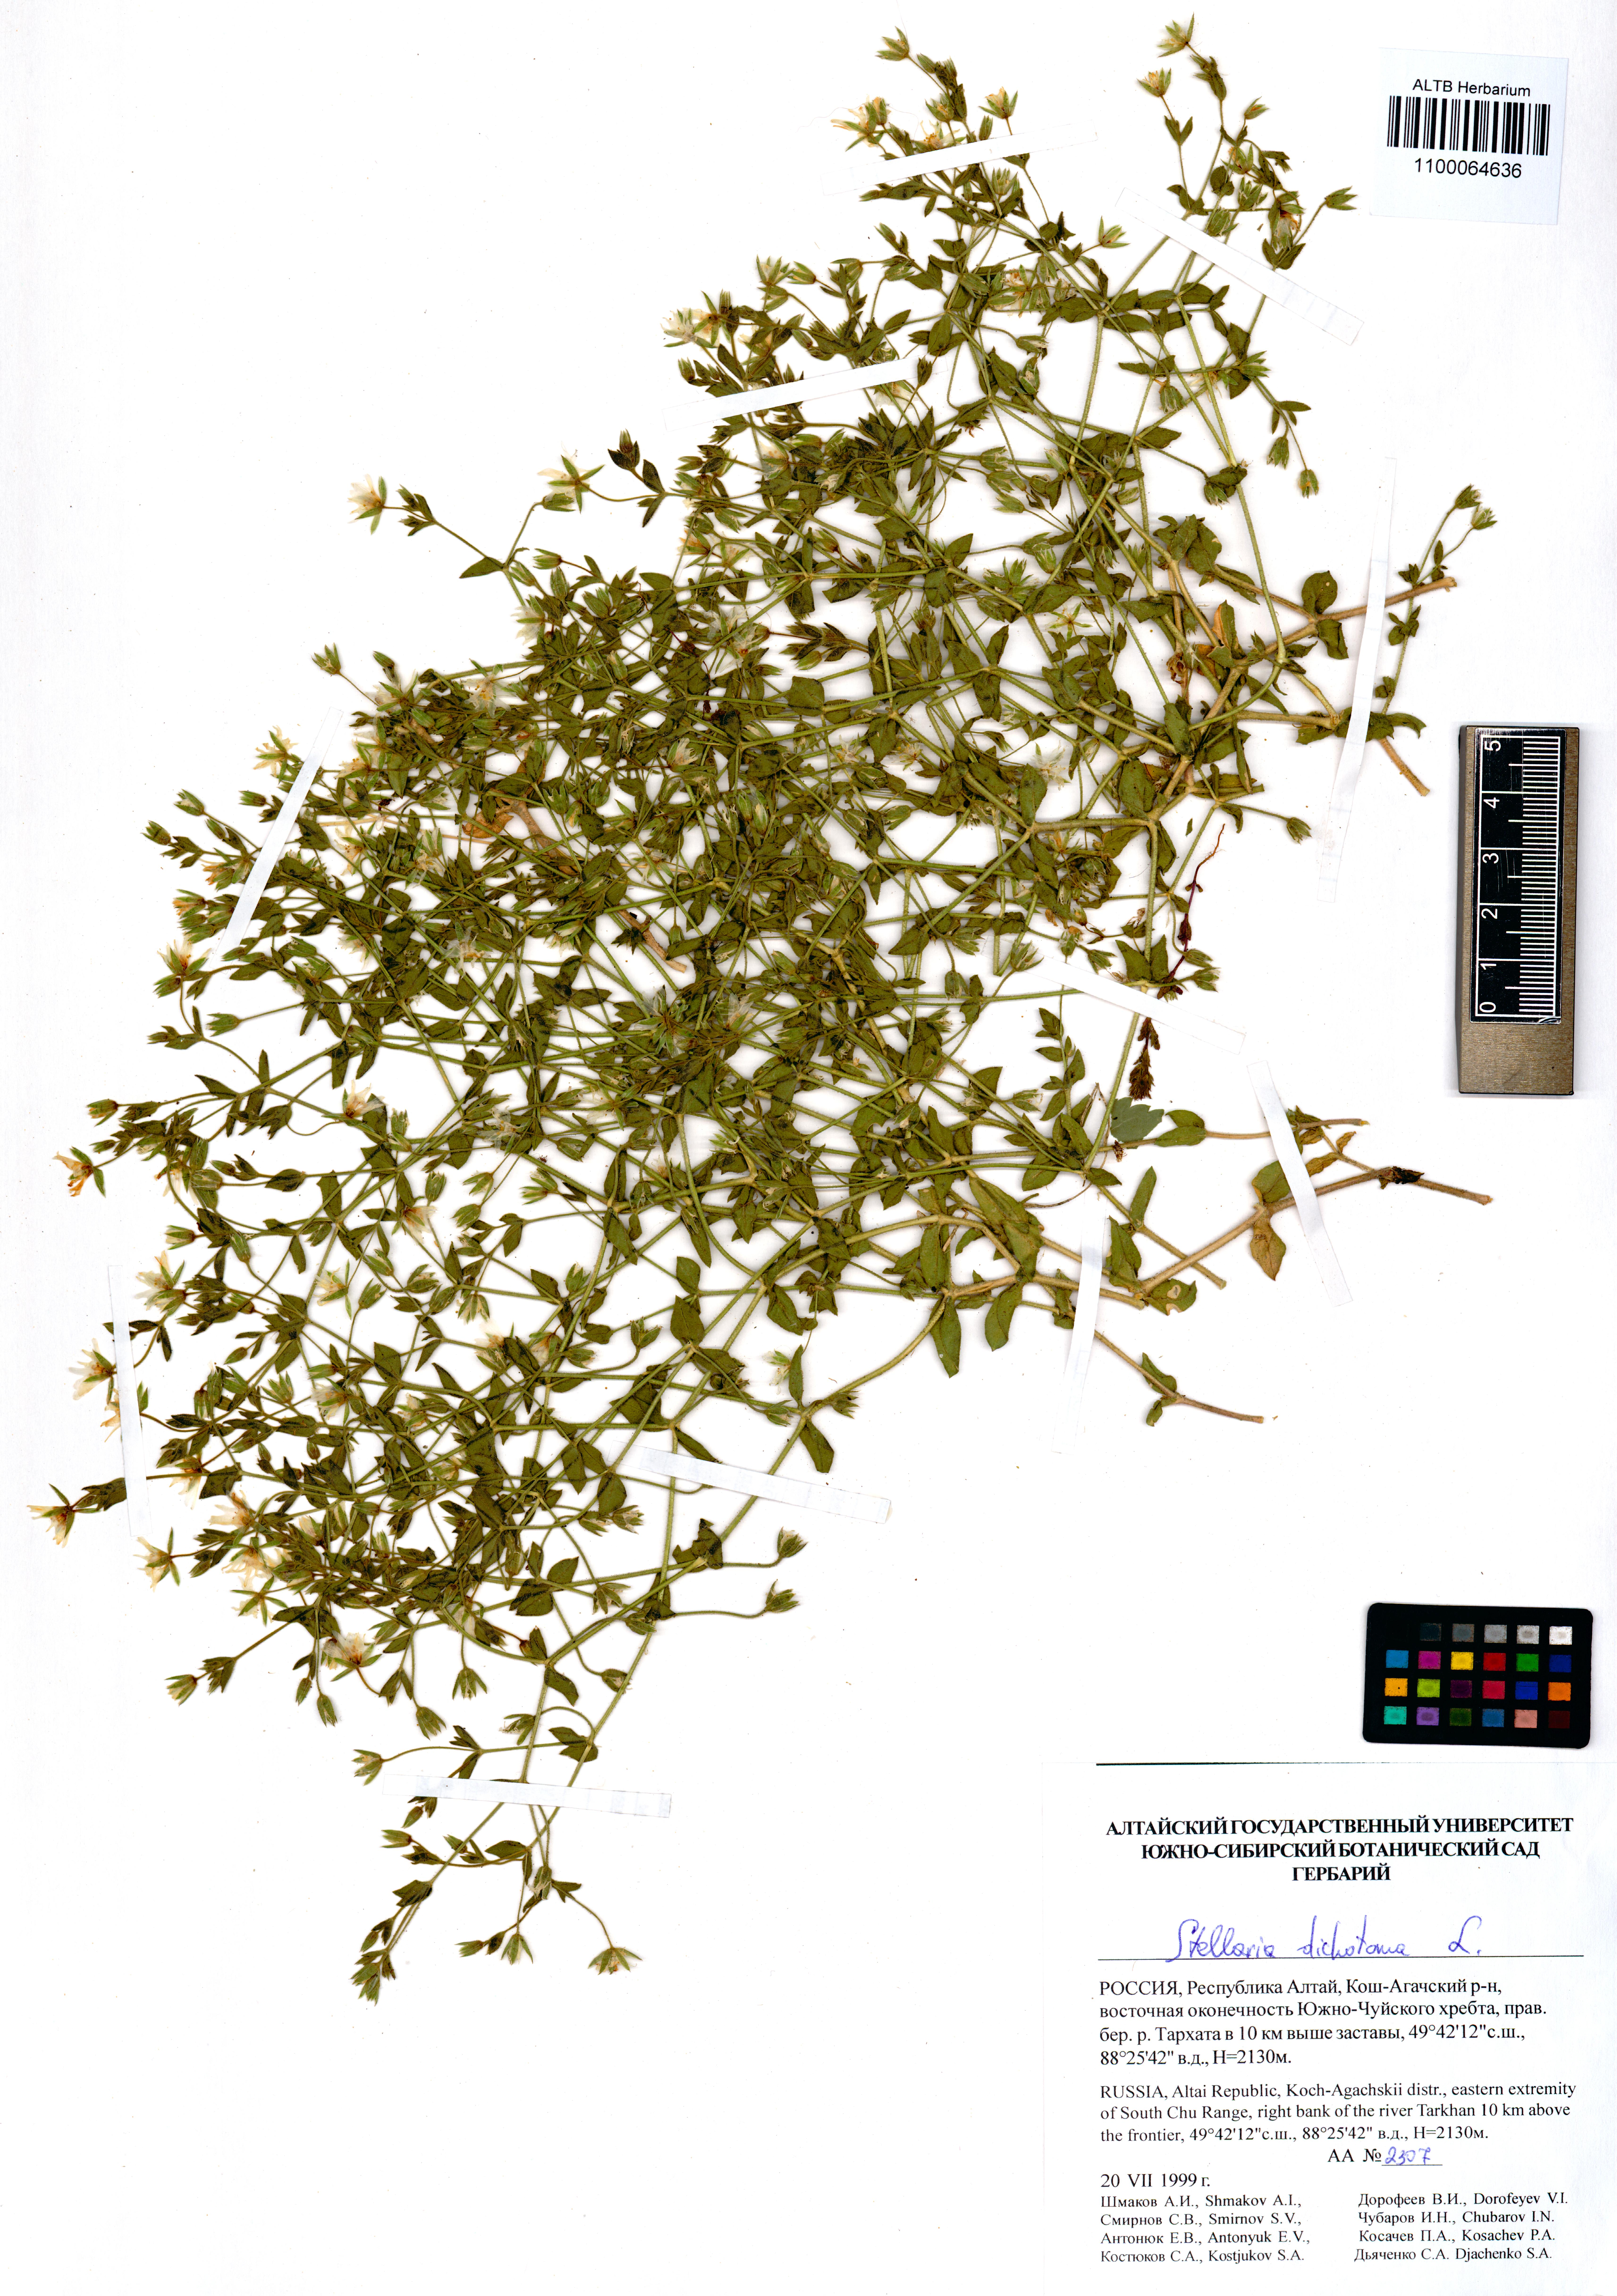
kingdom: Plantae
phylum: Tracheophyta
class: Magnoliopsida
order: Caryophyllales
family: Caryophyllaceae
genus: Mesostemma
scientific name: Mesostemma dichotomum
